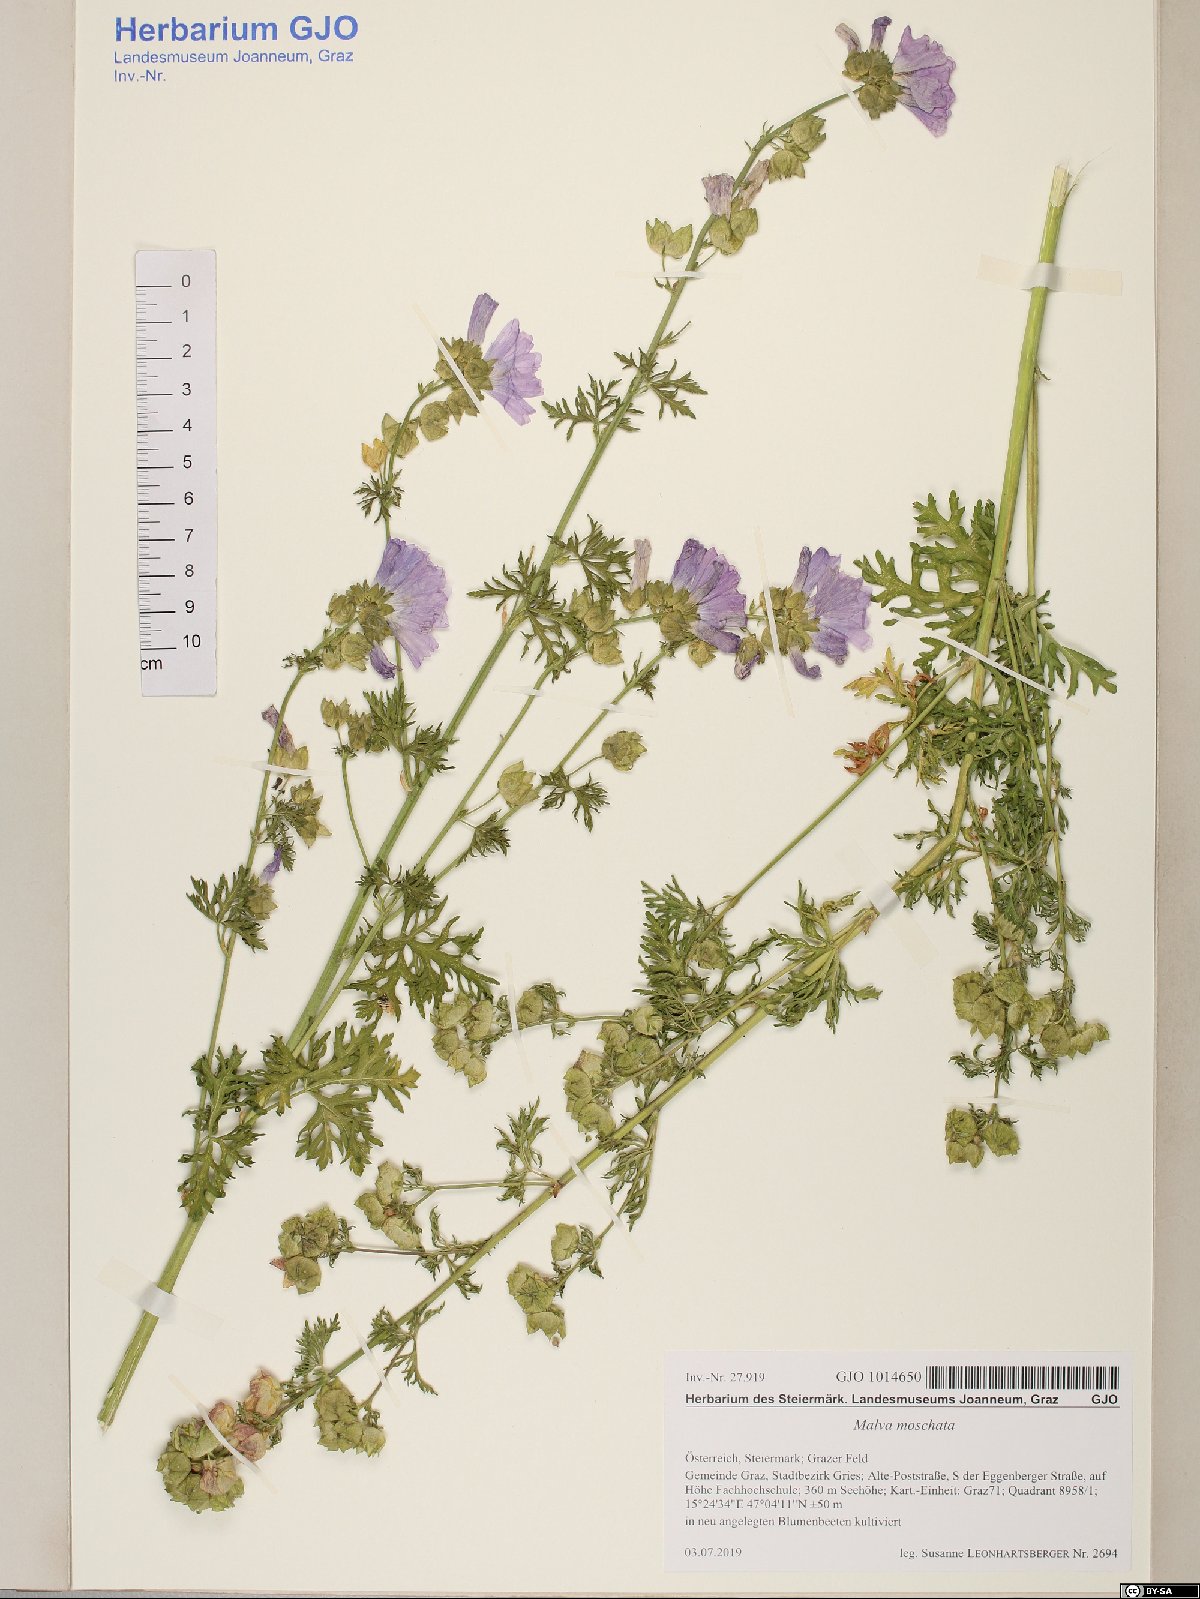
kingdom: Plantae
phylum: Tracheophyta
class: Magnoliopsida
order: Malvales
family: Malvaceae
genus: Malva
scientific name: Malva moschata
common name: Musk mallow
